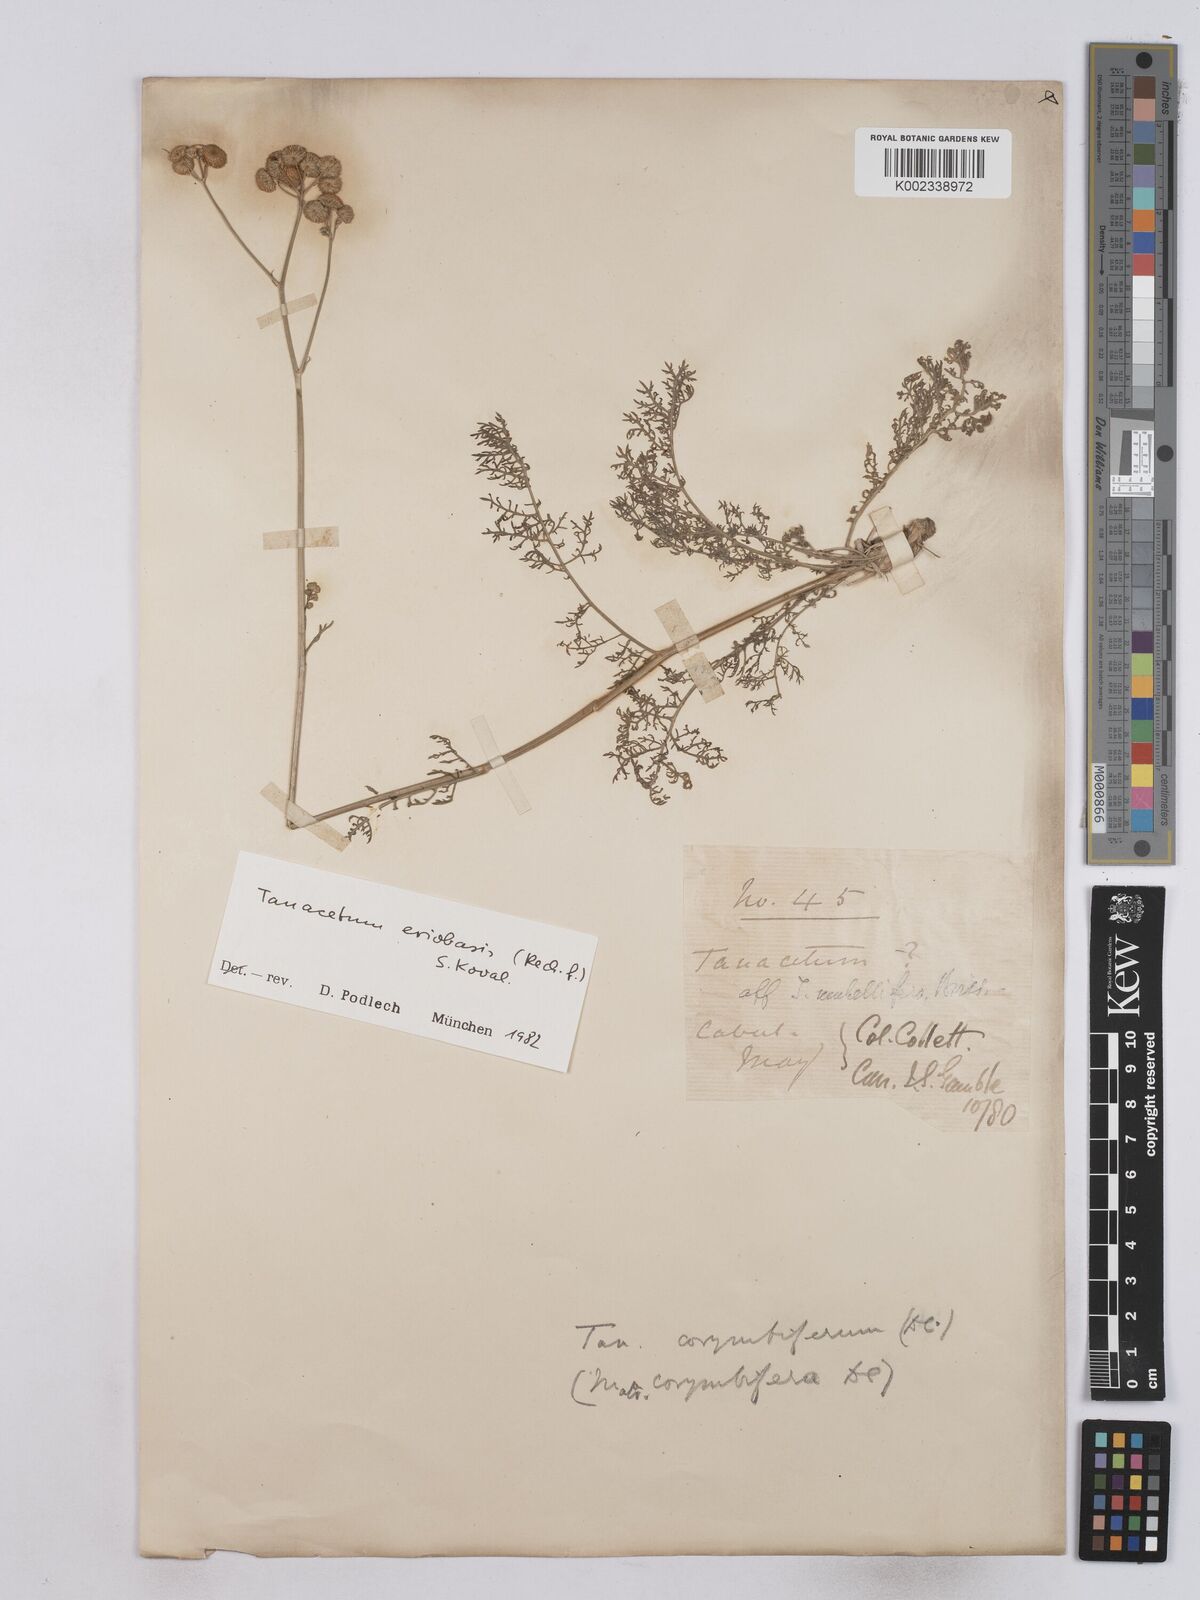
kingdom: Plantae
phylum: Tracheophyta
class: Magnoliopsida
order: Asterales
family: Asteraceae
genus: Tanacetum
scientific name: Tanacetum corymbosum
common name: Scentless feverfew
